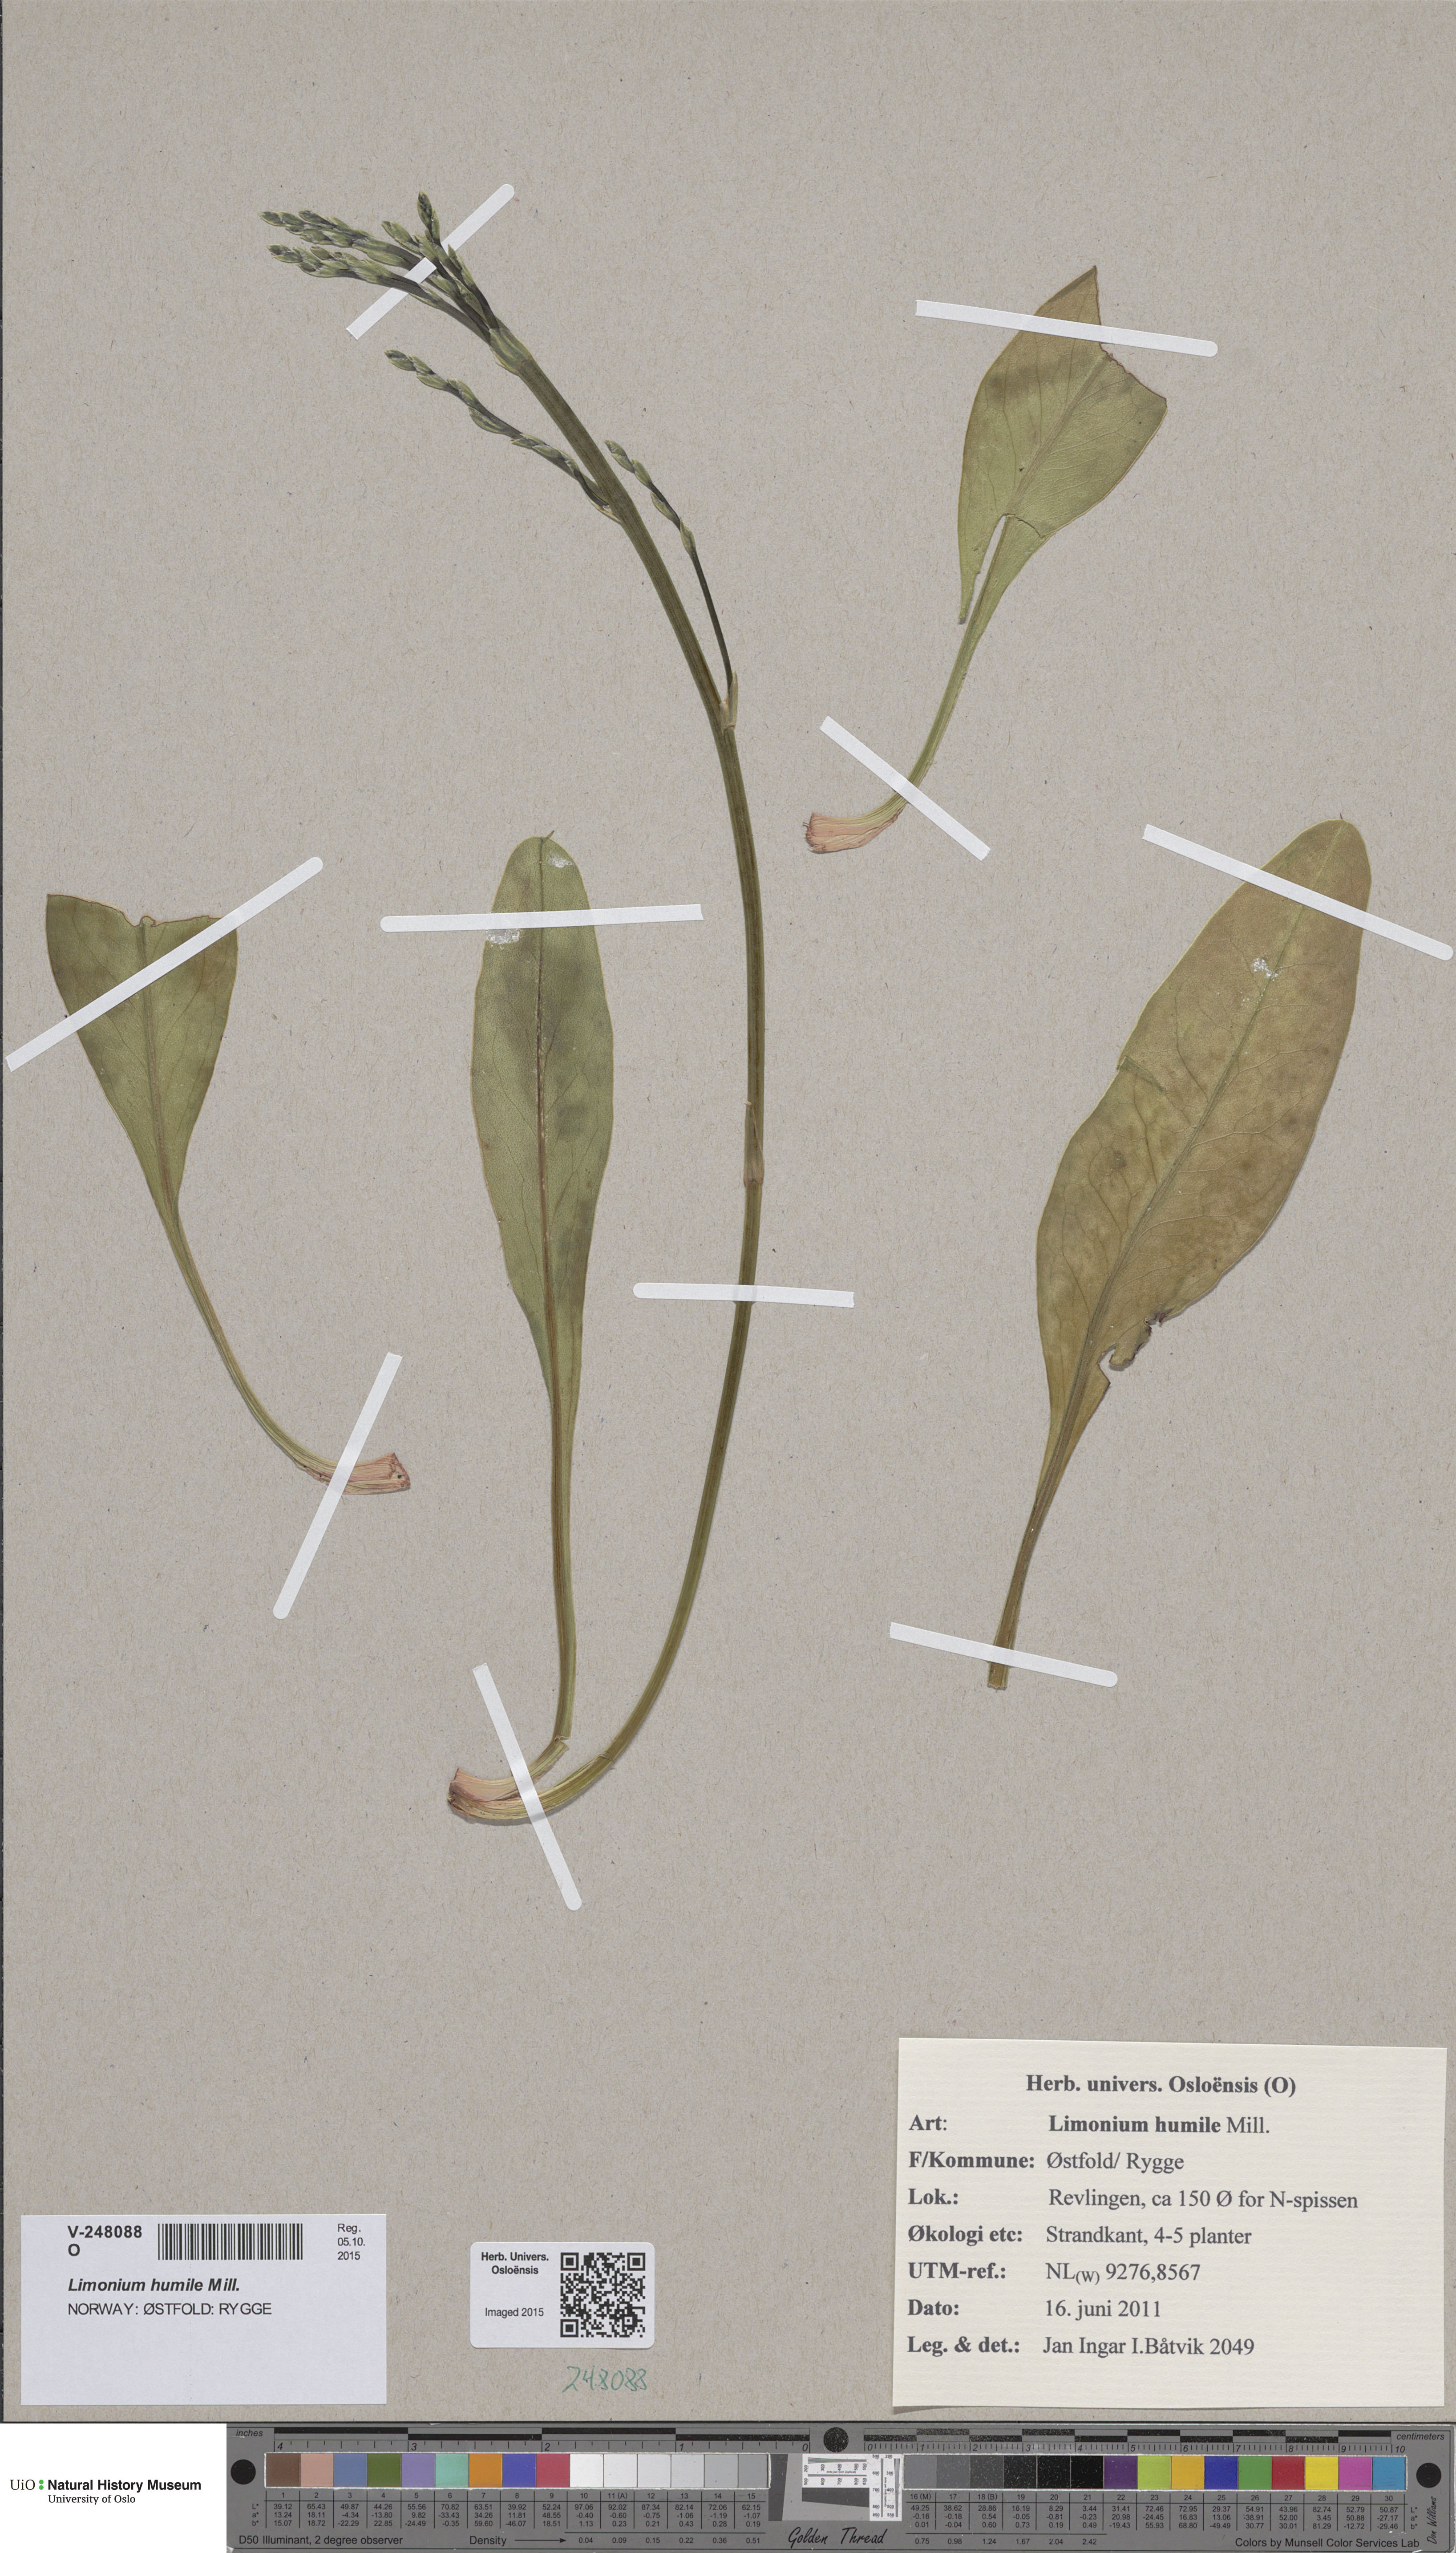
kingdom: Plantae
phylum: Tracheophyta
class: Magnoliopsida
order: Caryophyllales
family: Plumbaginaceae
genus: Limonium
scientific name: Limonium humile
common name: Lax-flowered sea-lavender
